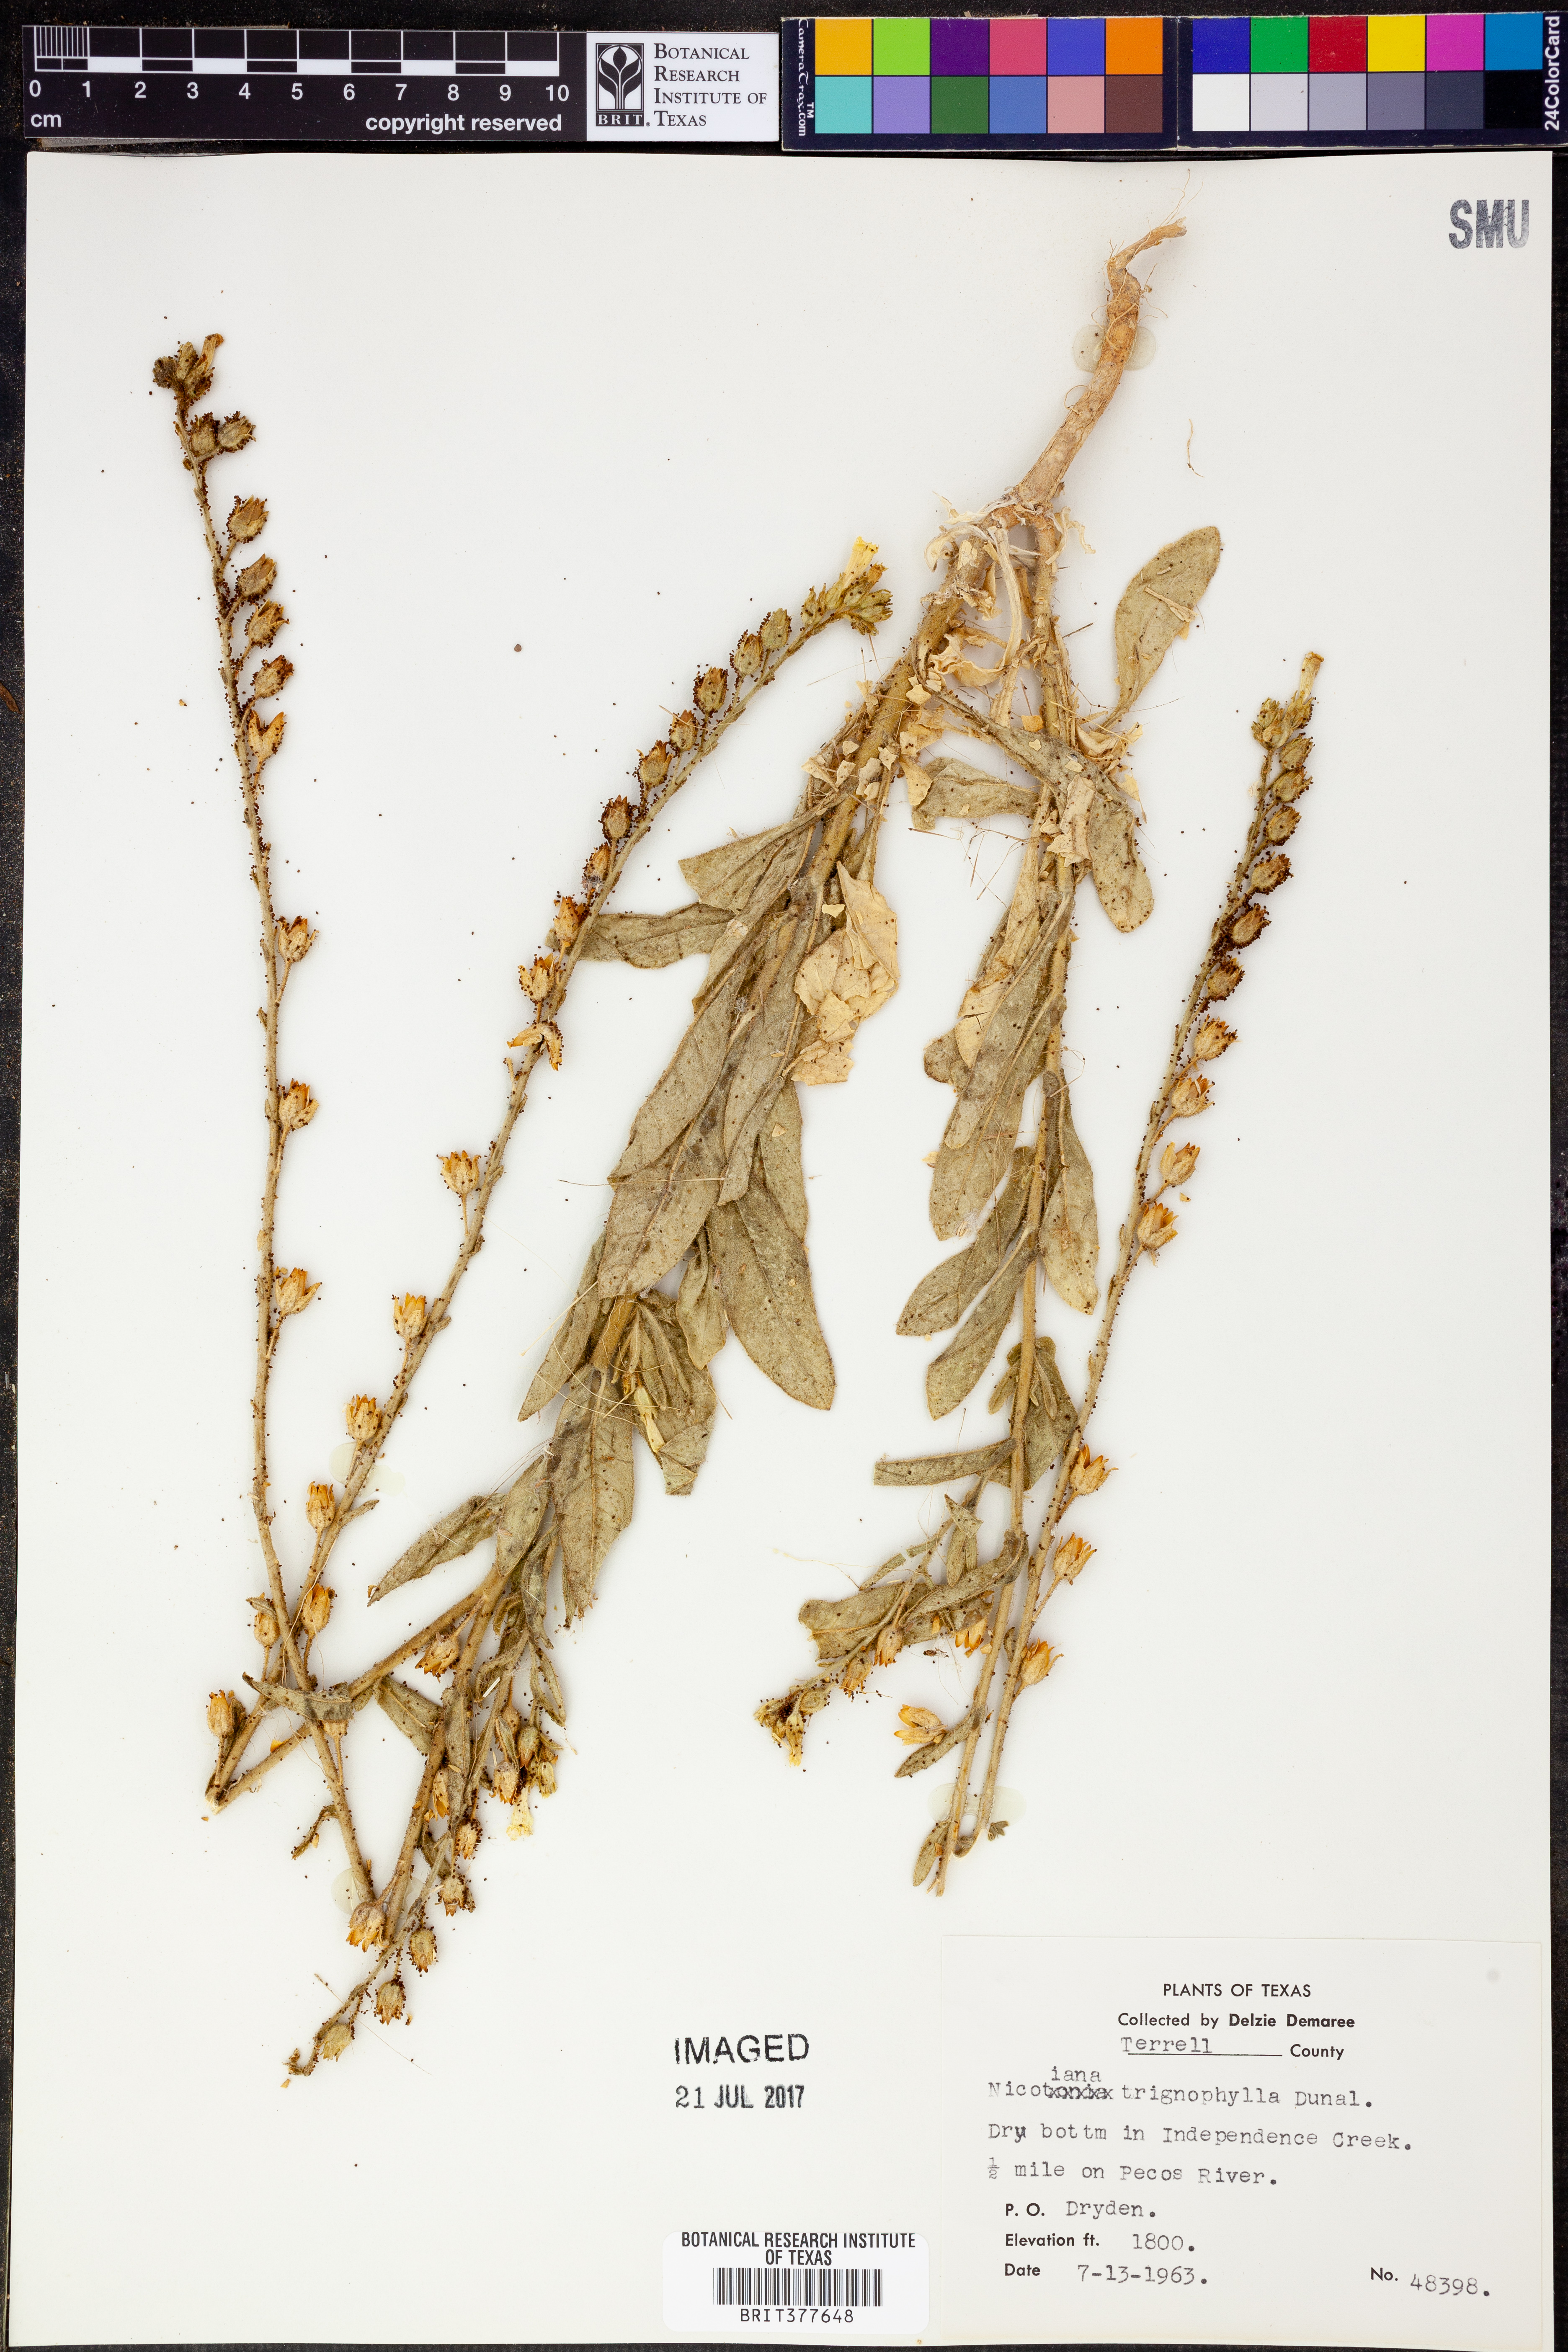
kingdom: Plantae
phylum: Tracheophyta
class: Magnoliopsida
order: Solanales
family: Solanaceae
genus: Nicotiana
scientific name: Nicotiana obtusifolia
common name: Desert tobacco
